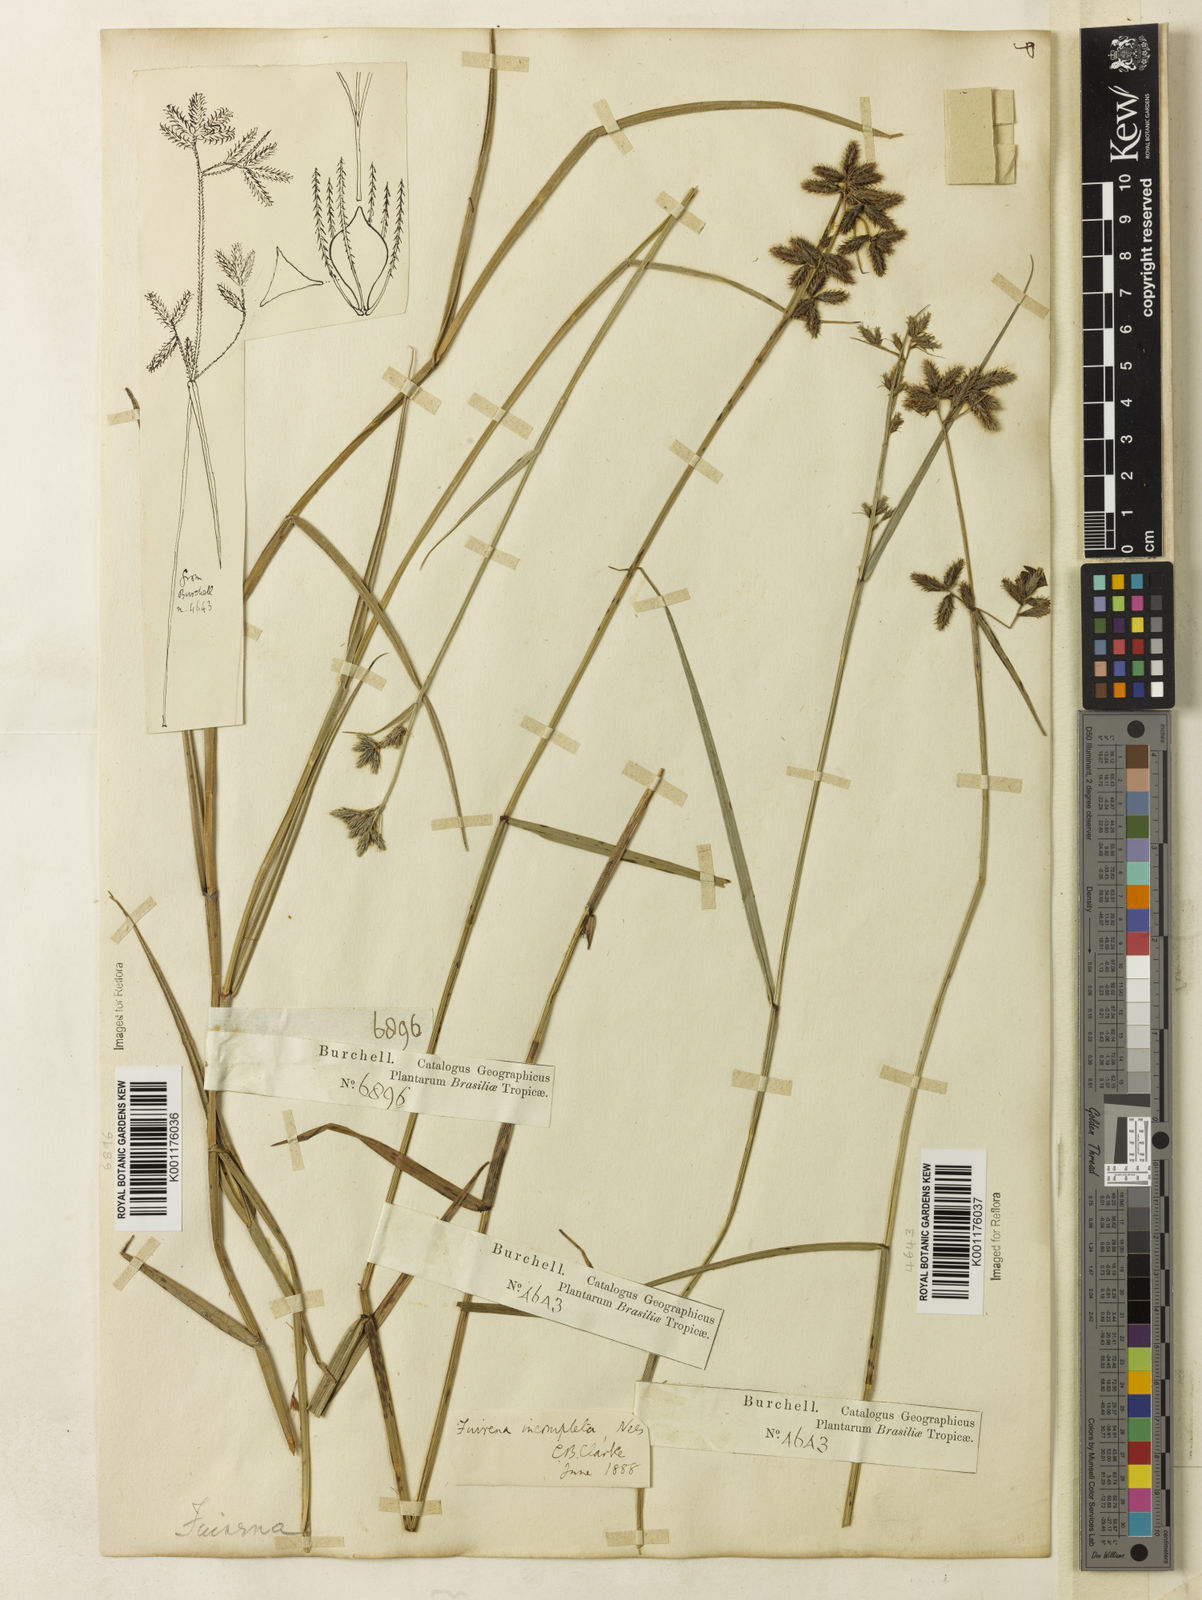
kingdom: Plantae
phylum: Tracheophyta
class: Liliopsida
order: Poales
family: Cyperaceae
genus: Fuirena
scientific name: Fuirena incompleta
